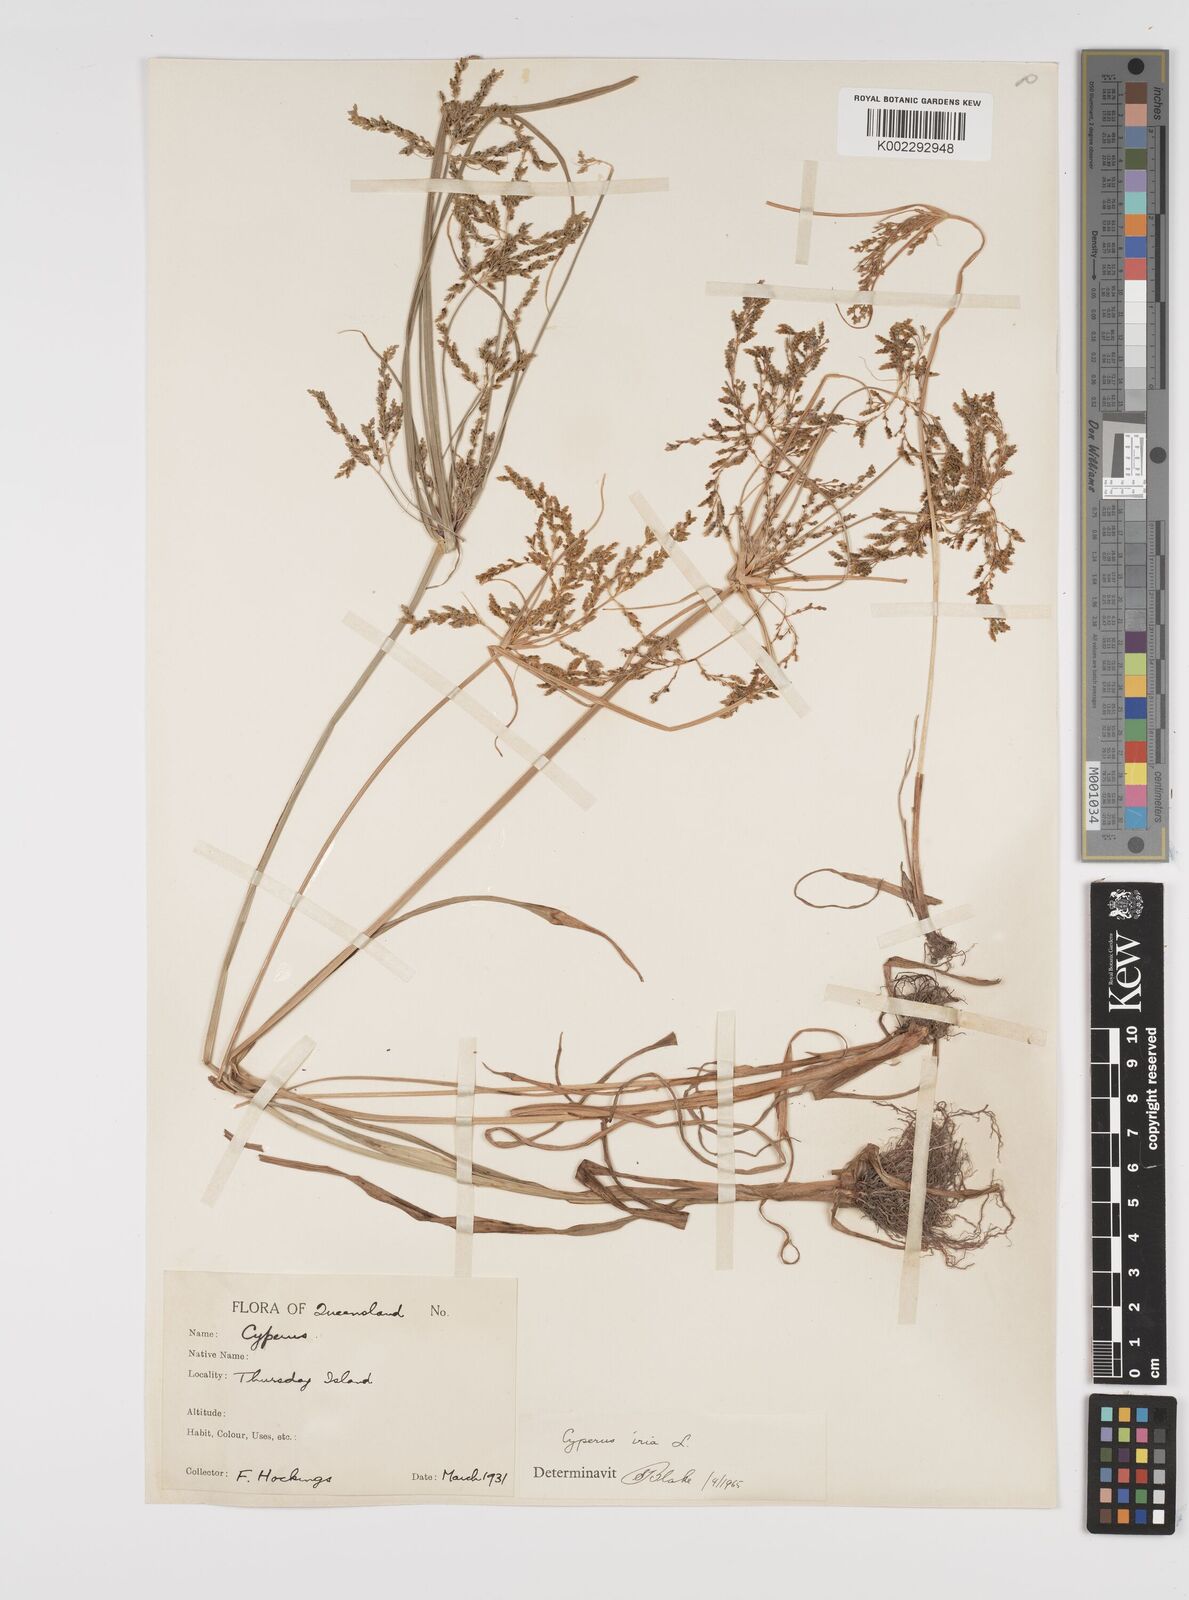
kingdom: Plantae
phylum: Tracheophyta
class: Liliopsida
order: Poales
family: Cyperaceae
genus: Cyperus
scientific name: Cyperus iria
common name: Ricefield flatsedge
